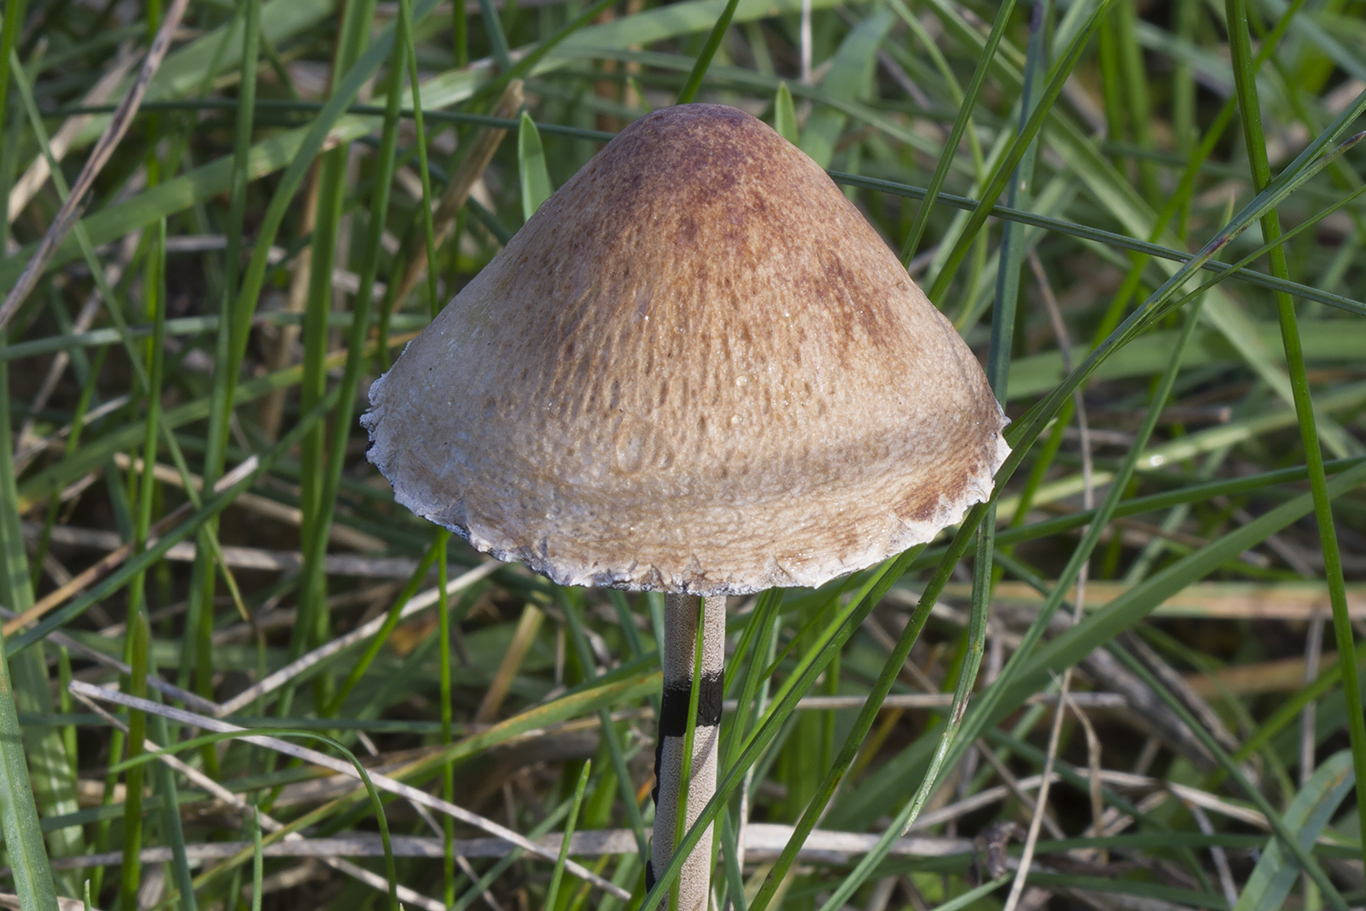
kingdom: Fungi
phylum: Basidiomycota
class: Agaricomycetes
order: Agaricales
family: Bolbitiaceae
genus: Panaeolus
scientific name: Panaeolus papilionaceus
